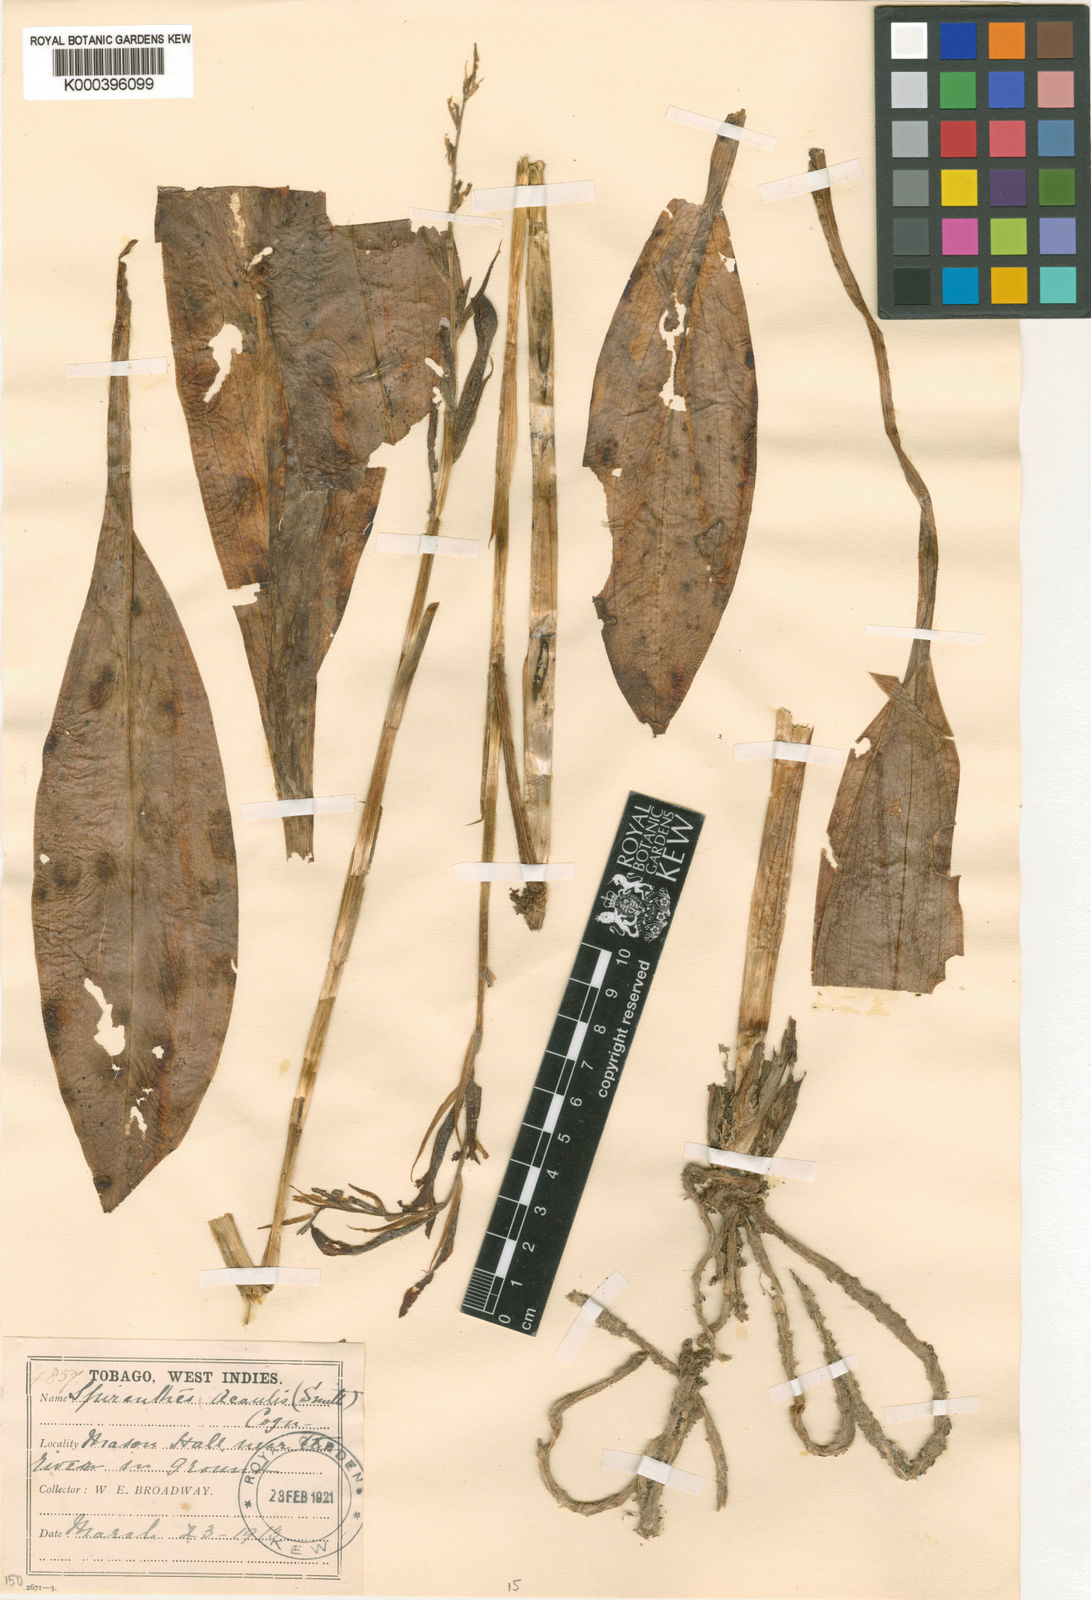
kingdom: Plantae
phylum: Tracheophyta
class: Liliopsida
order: Asparagales
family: Orchidaceae
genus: Sarcoglottis
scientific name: Sarcoglottis acaulis
